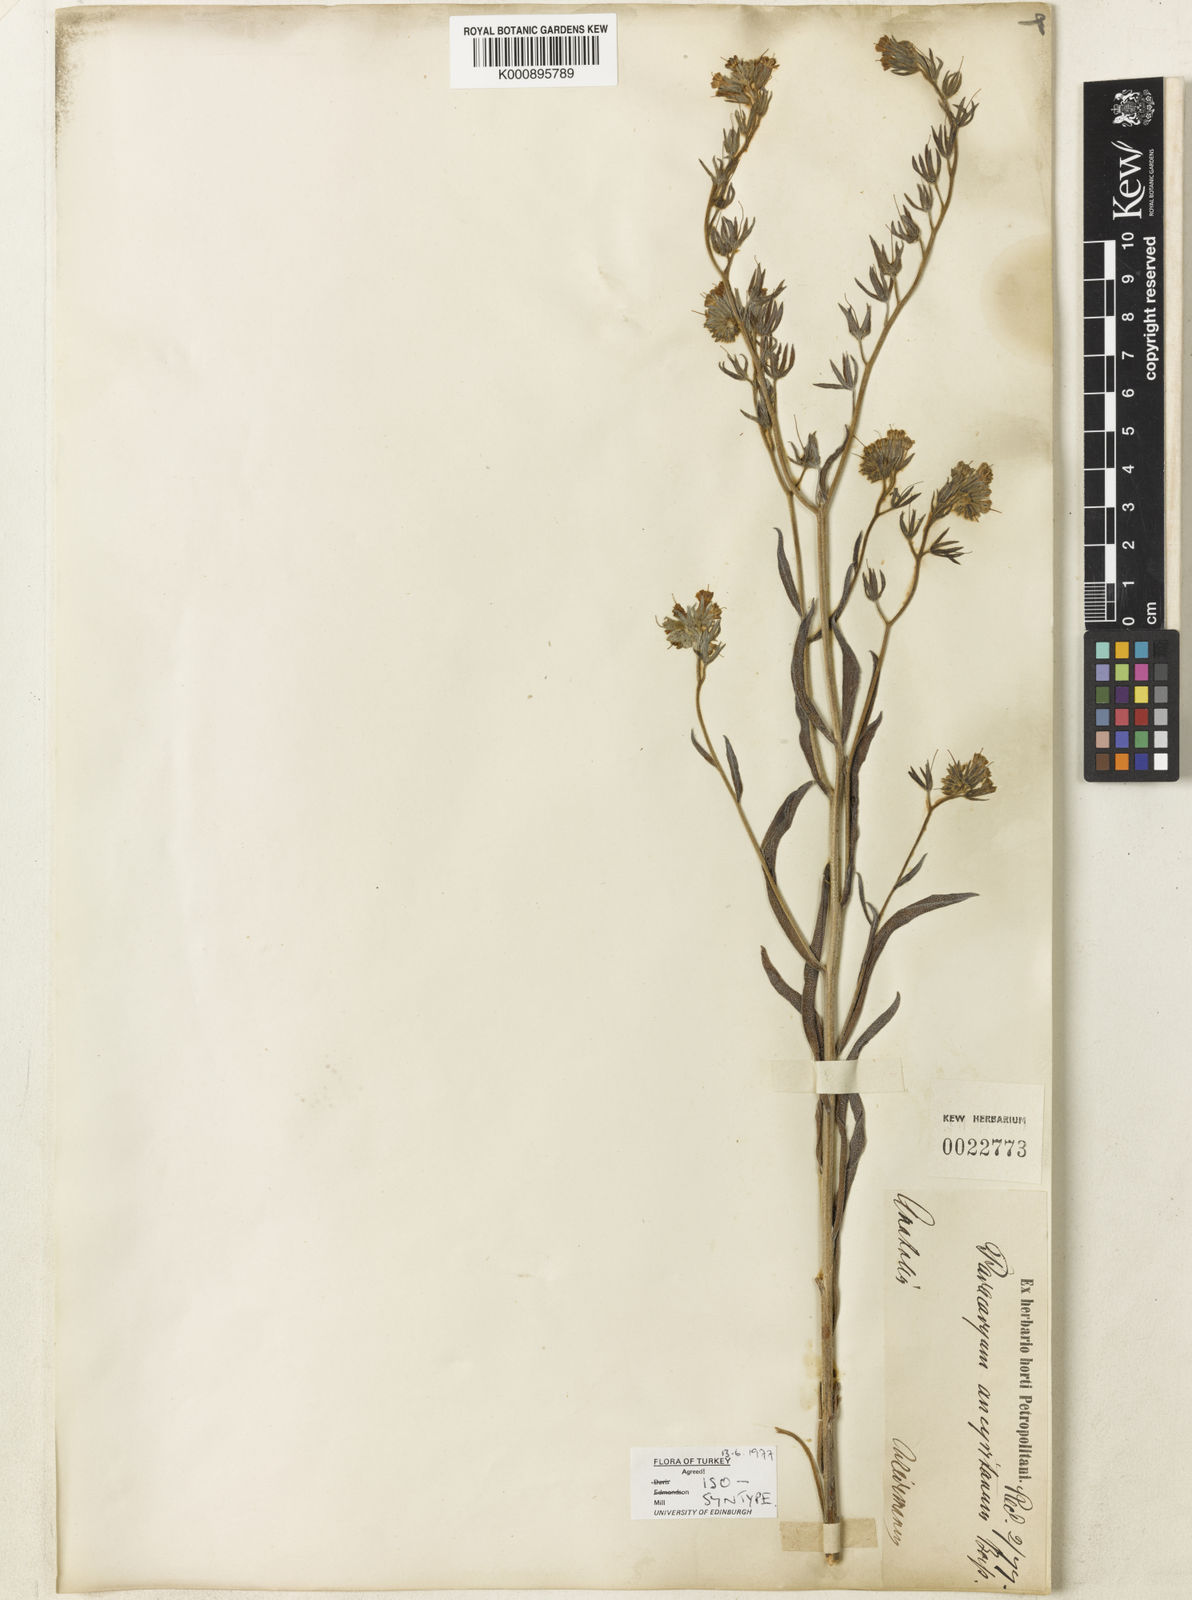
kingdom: Plantae
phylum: Tracheophyta
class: Magnoliopsida
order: Boraginales
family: Boraginaceae
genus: Paracaryum
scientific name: Paracaryum leptophyllum
